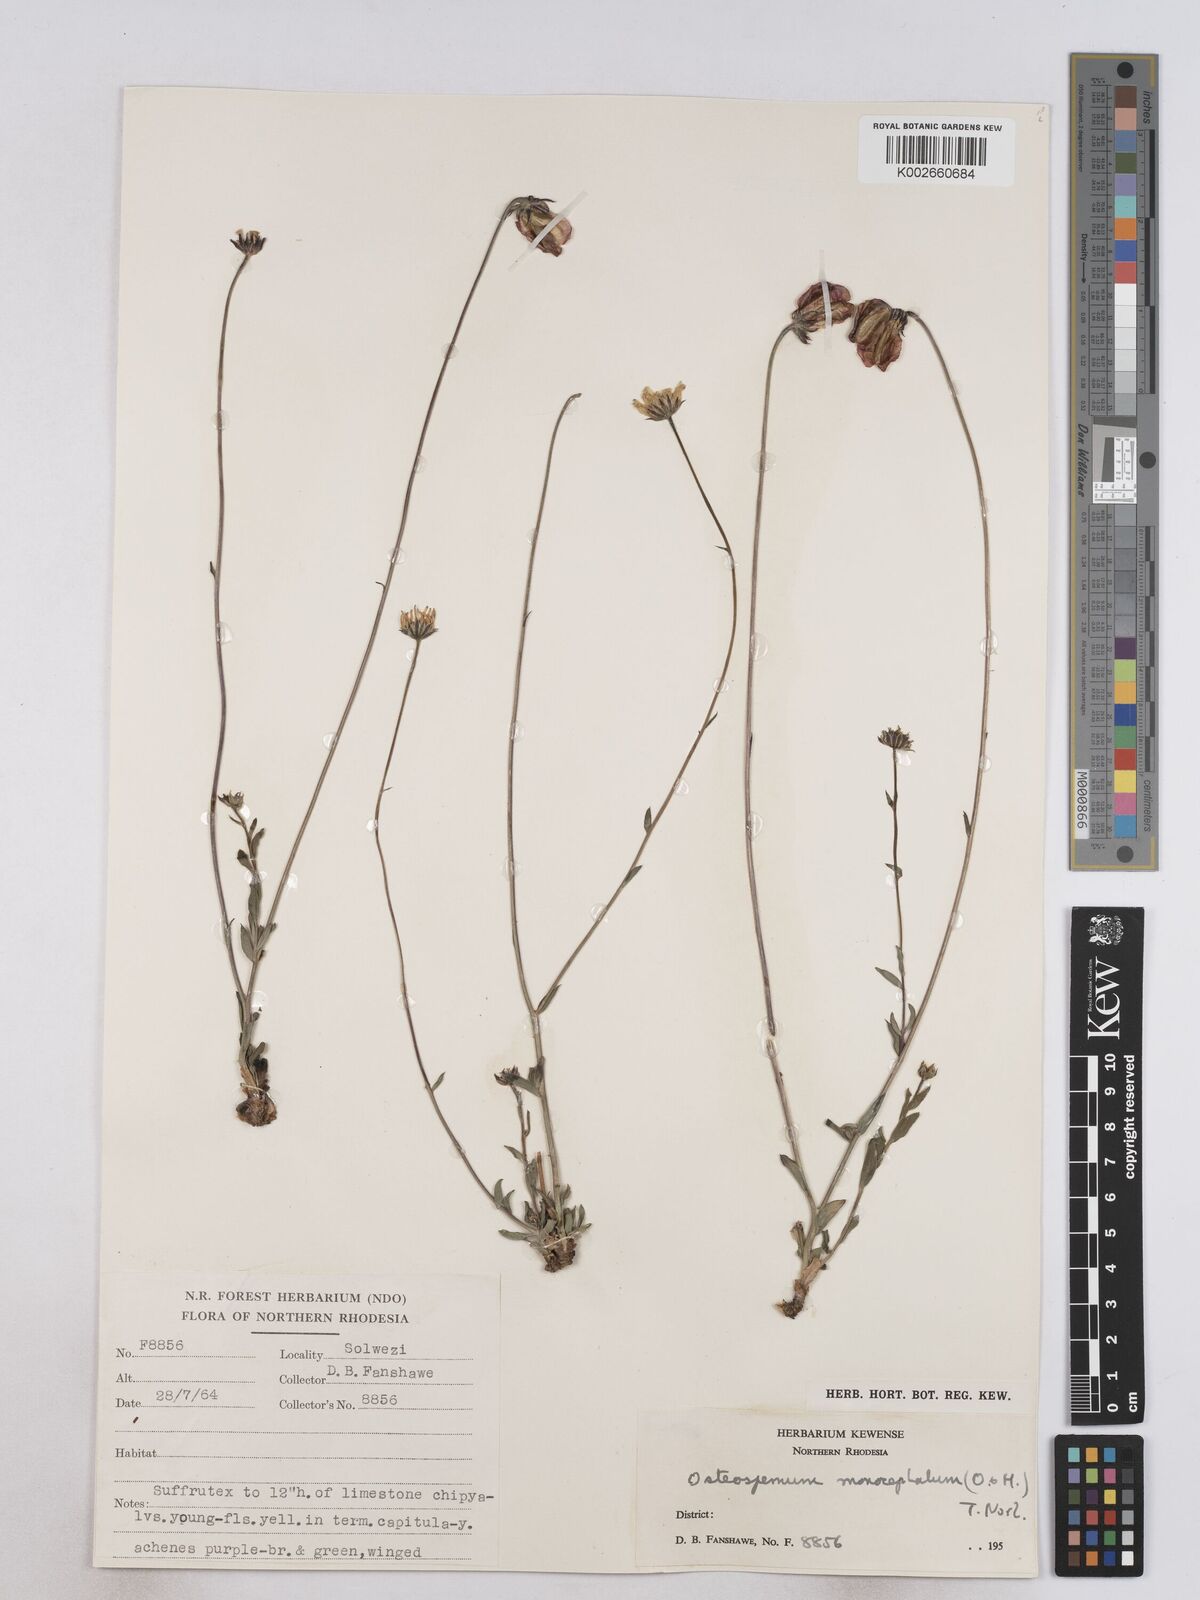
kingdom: Plantae
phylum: Tracheophyta
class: Magnoliopsida
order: Asterales
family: Asteraceae
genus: Osteospermum
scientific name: Osteospermum monocephalum
